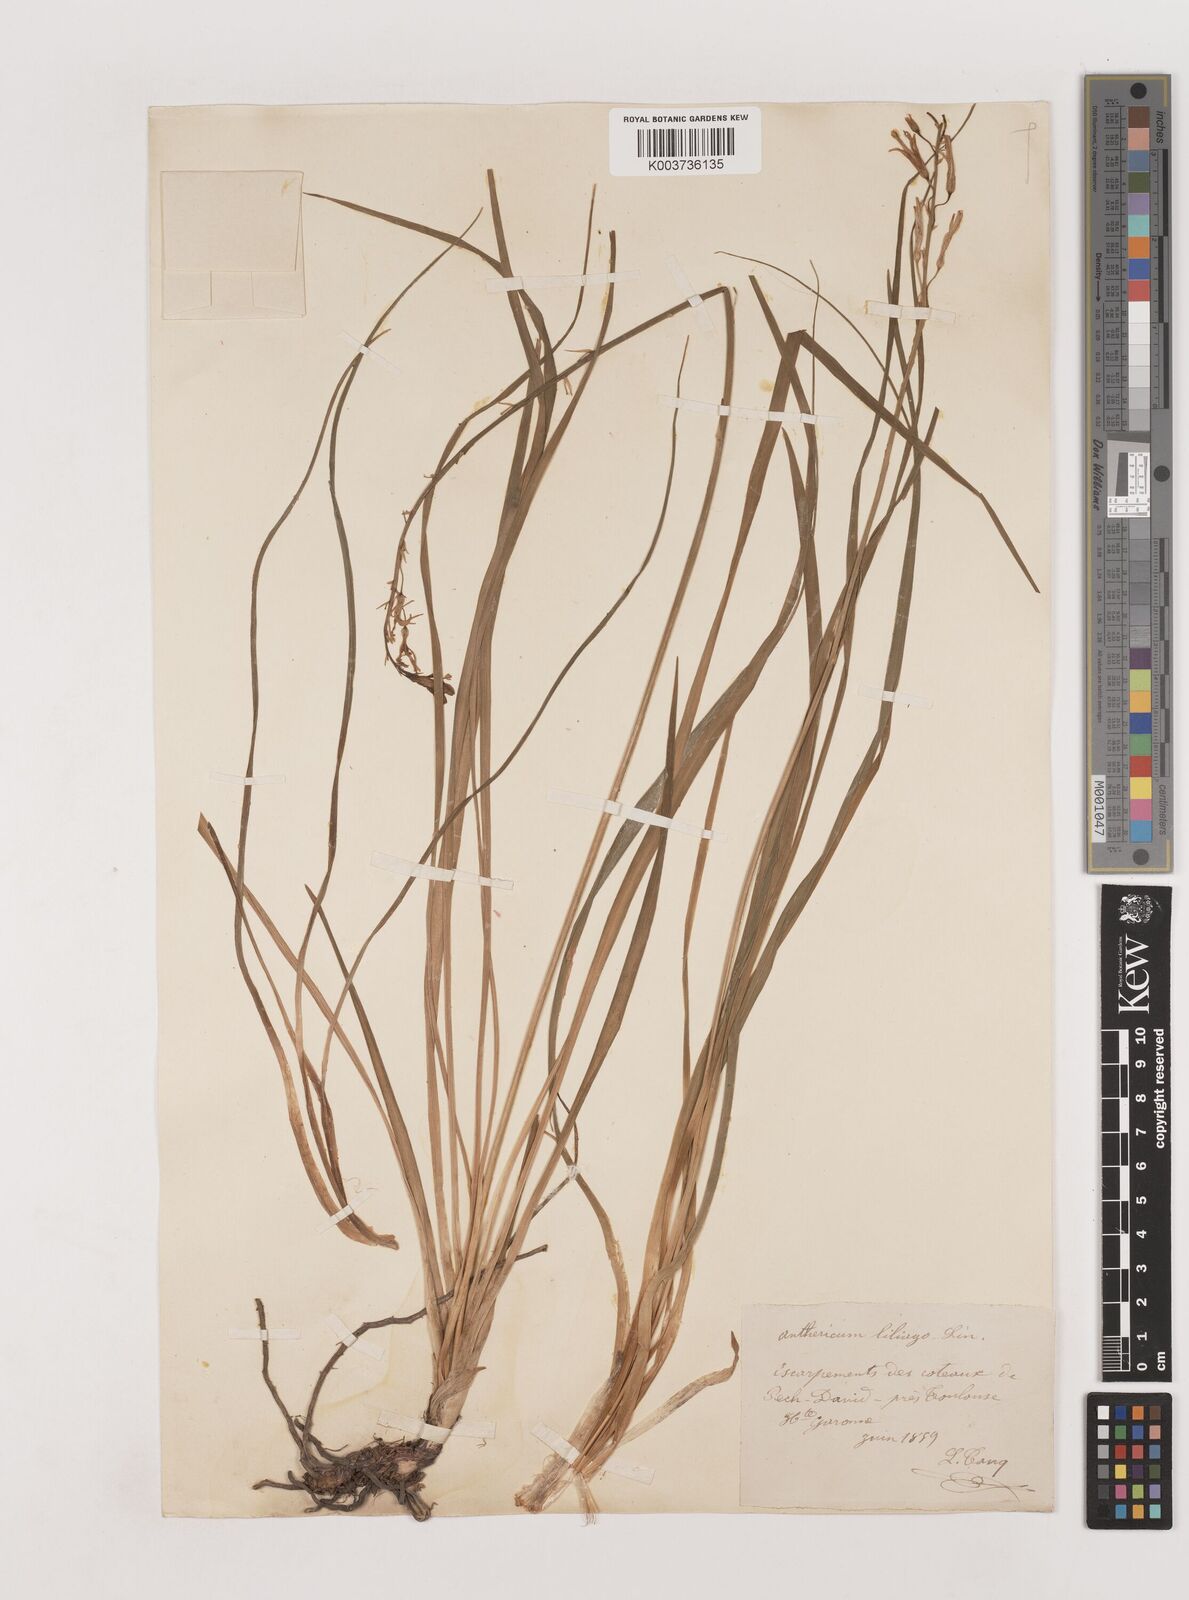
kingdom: Plantae
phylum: Tracheophyta
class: Liliopsida
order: Asparagales
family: Asparagaceae
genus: Anthericum
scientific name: Anthericum liliago
